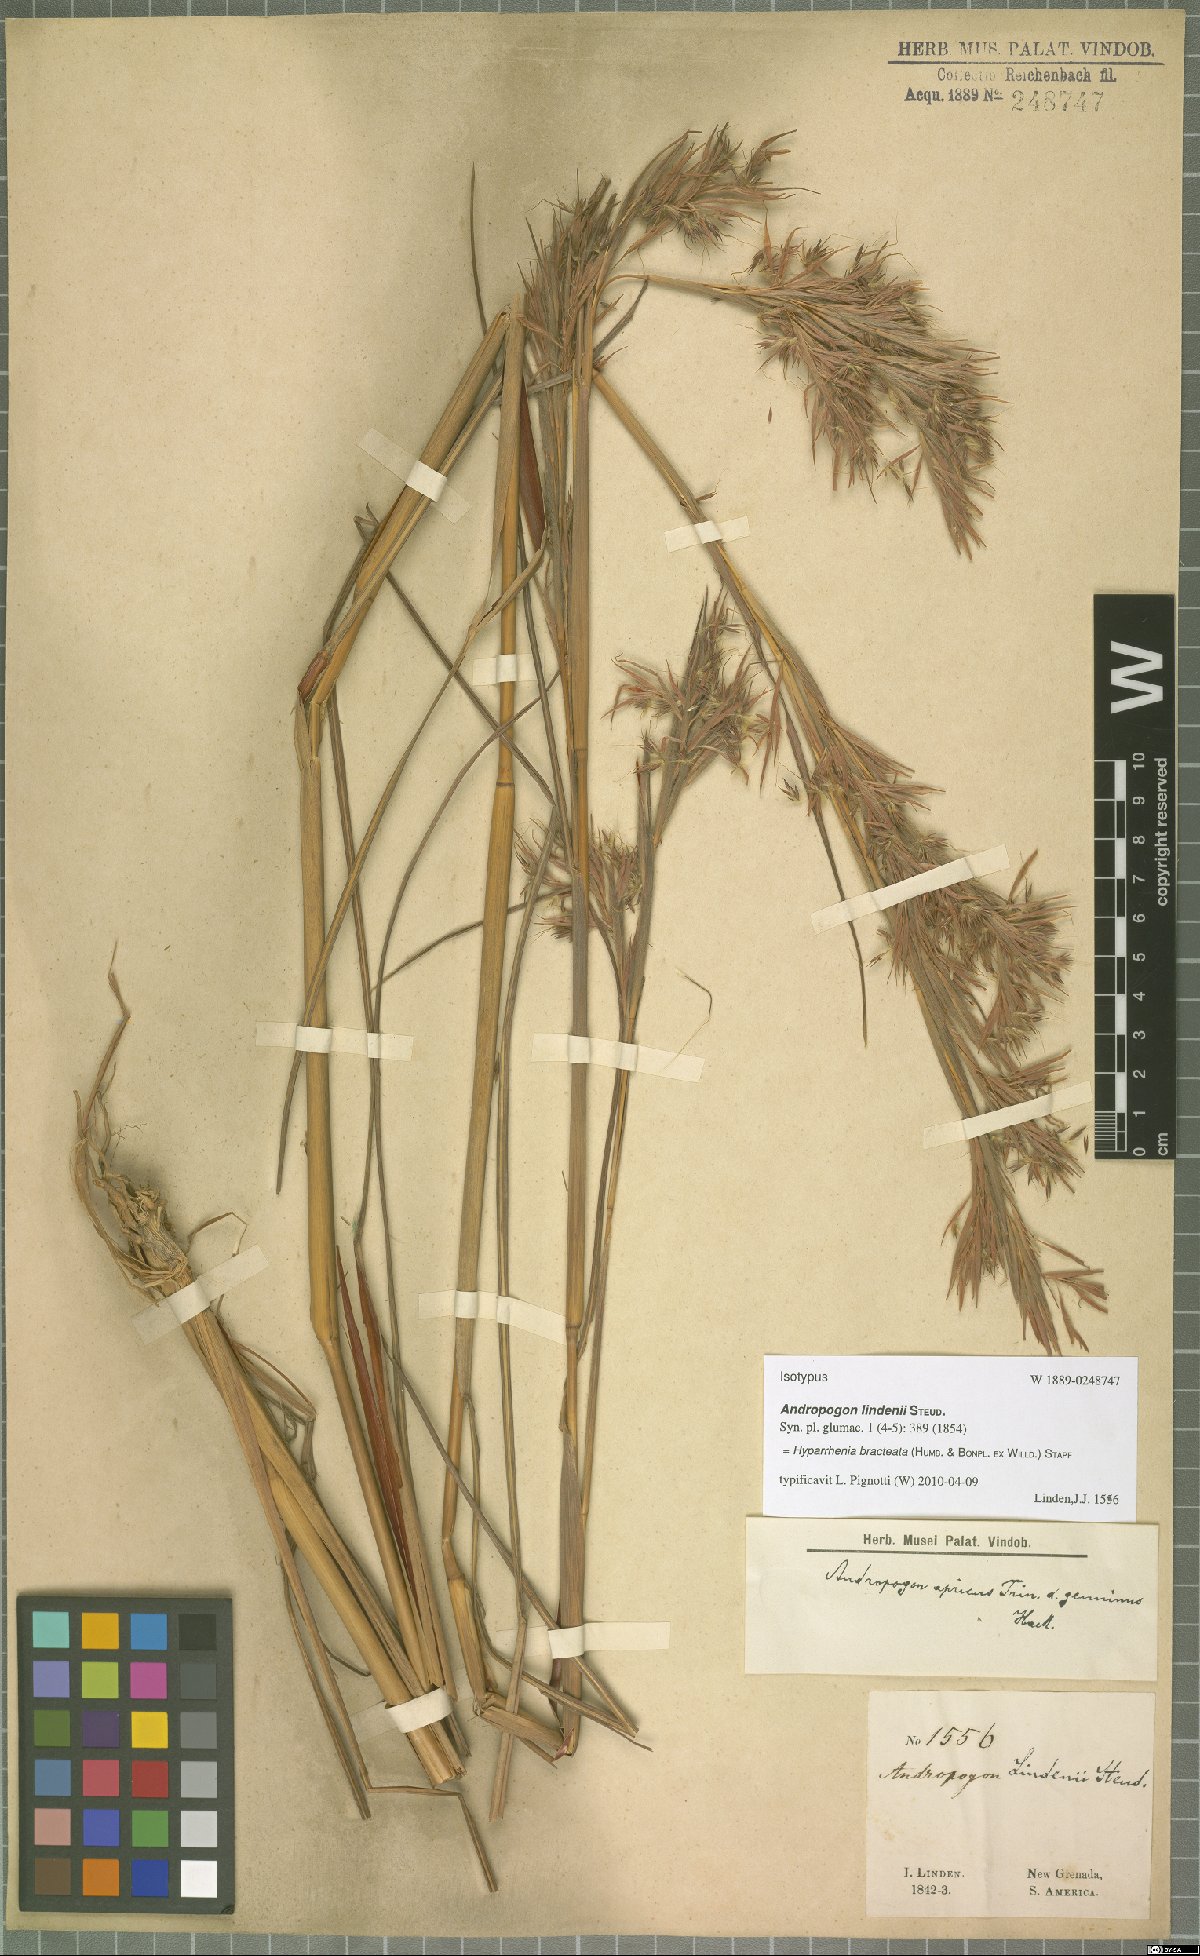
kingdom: Plantae
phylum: Tracheophyta
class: Liliopsida
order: Poales
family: Poaceae
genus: Hyparrhenia
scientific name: Hyparrhenia bracteata
